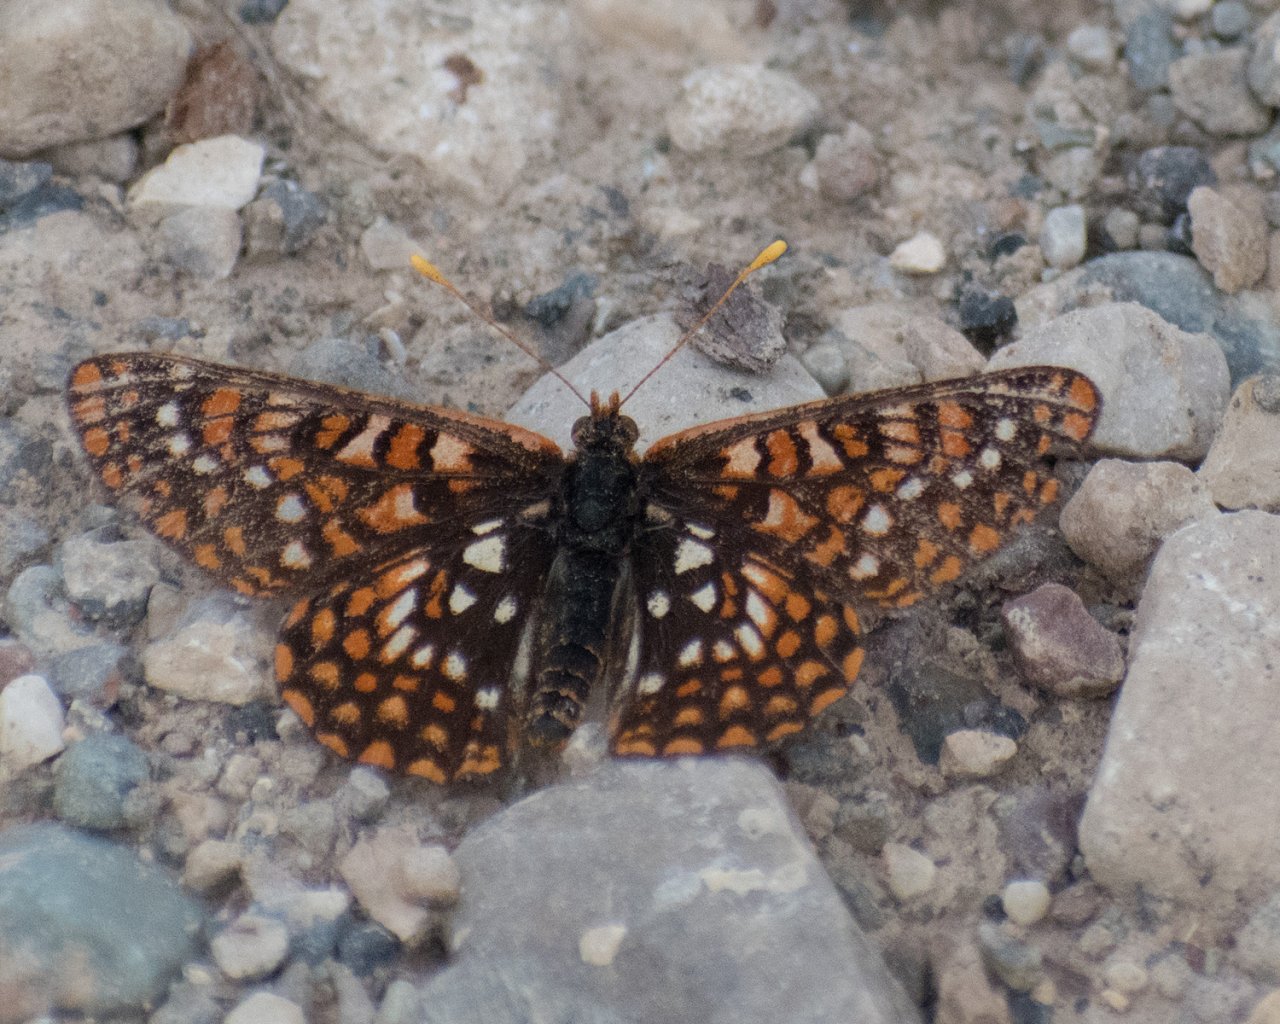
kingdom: Animalia
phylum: Arthropoda
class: Insecta
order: Lepidoptera
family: Nymphalidae
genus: Occidryas
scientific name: Occidryas anicia
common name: Anicia Checkerspot
